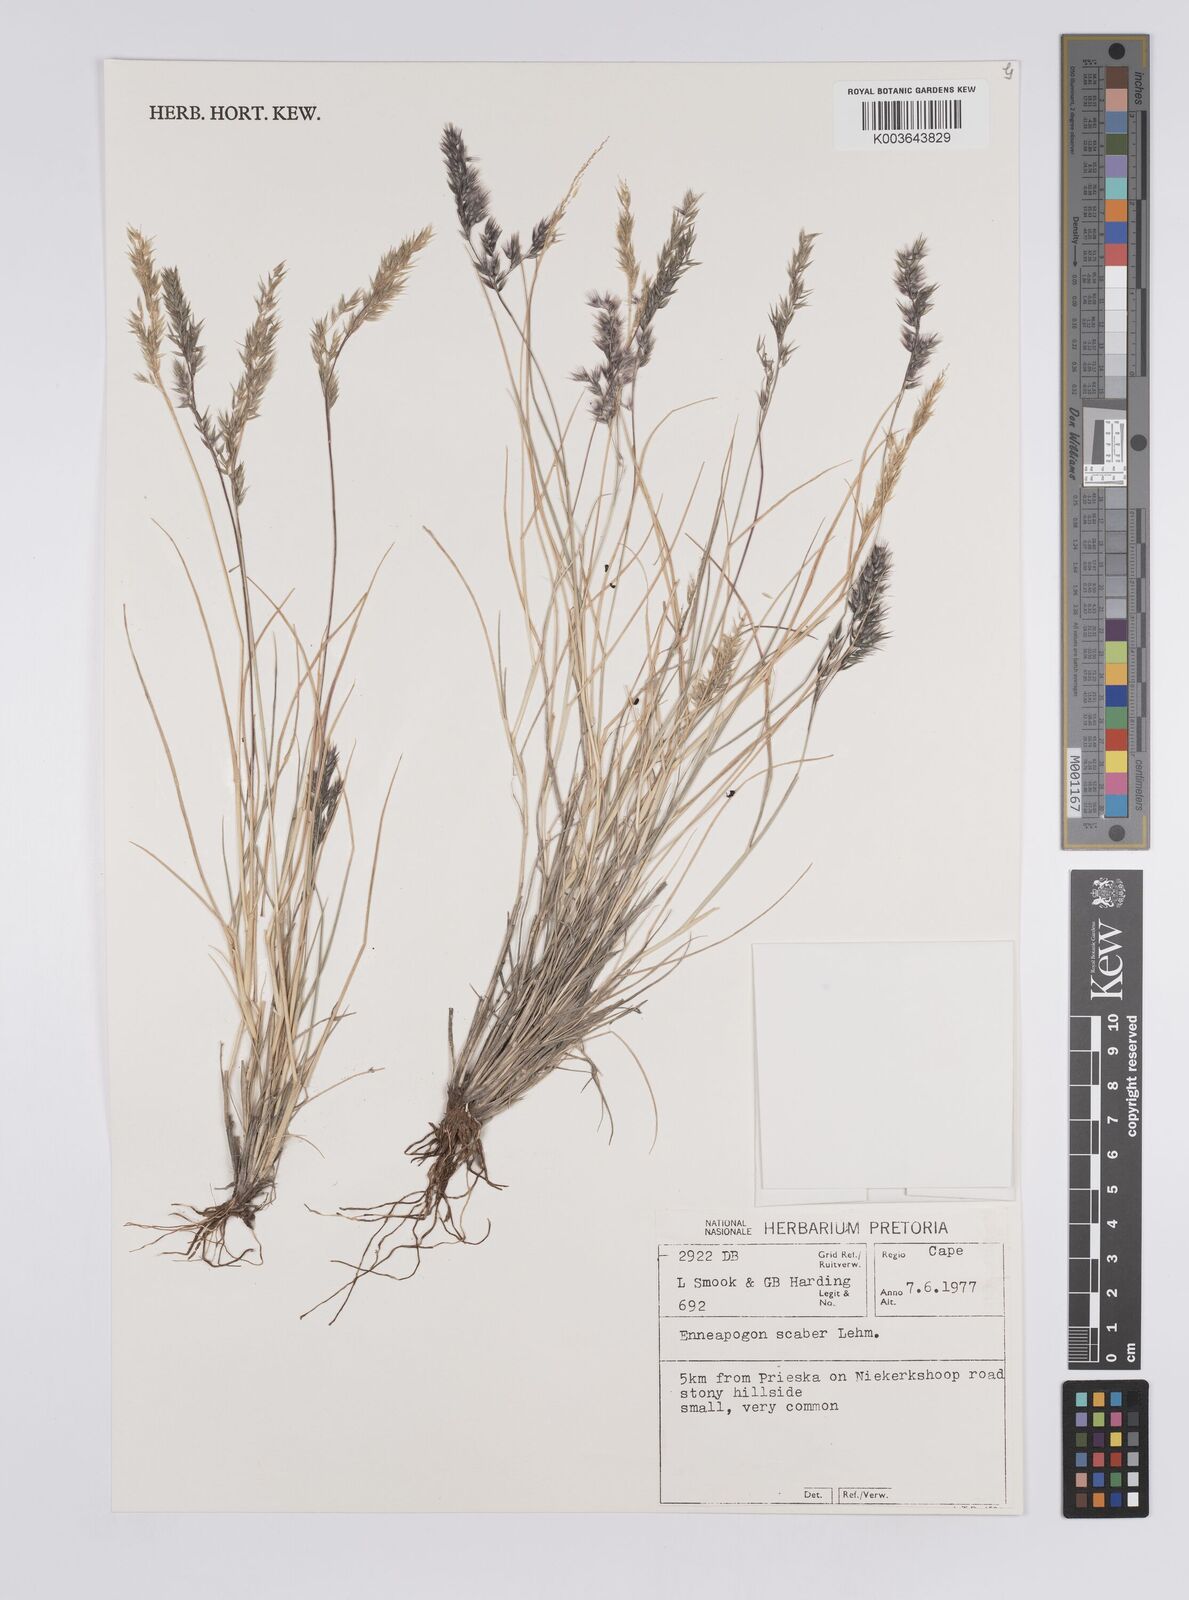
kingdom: Plantae
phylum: Tracheophyta
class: Liliopsida
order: Poales
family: Poaceae
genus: Enneapogon
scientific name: Enneapogon scaber
